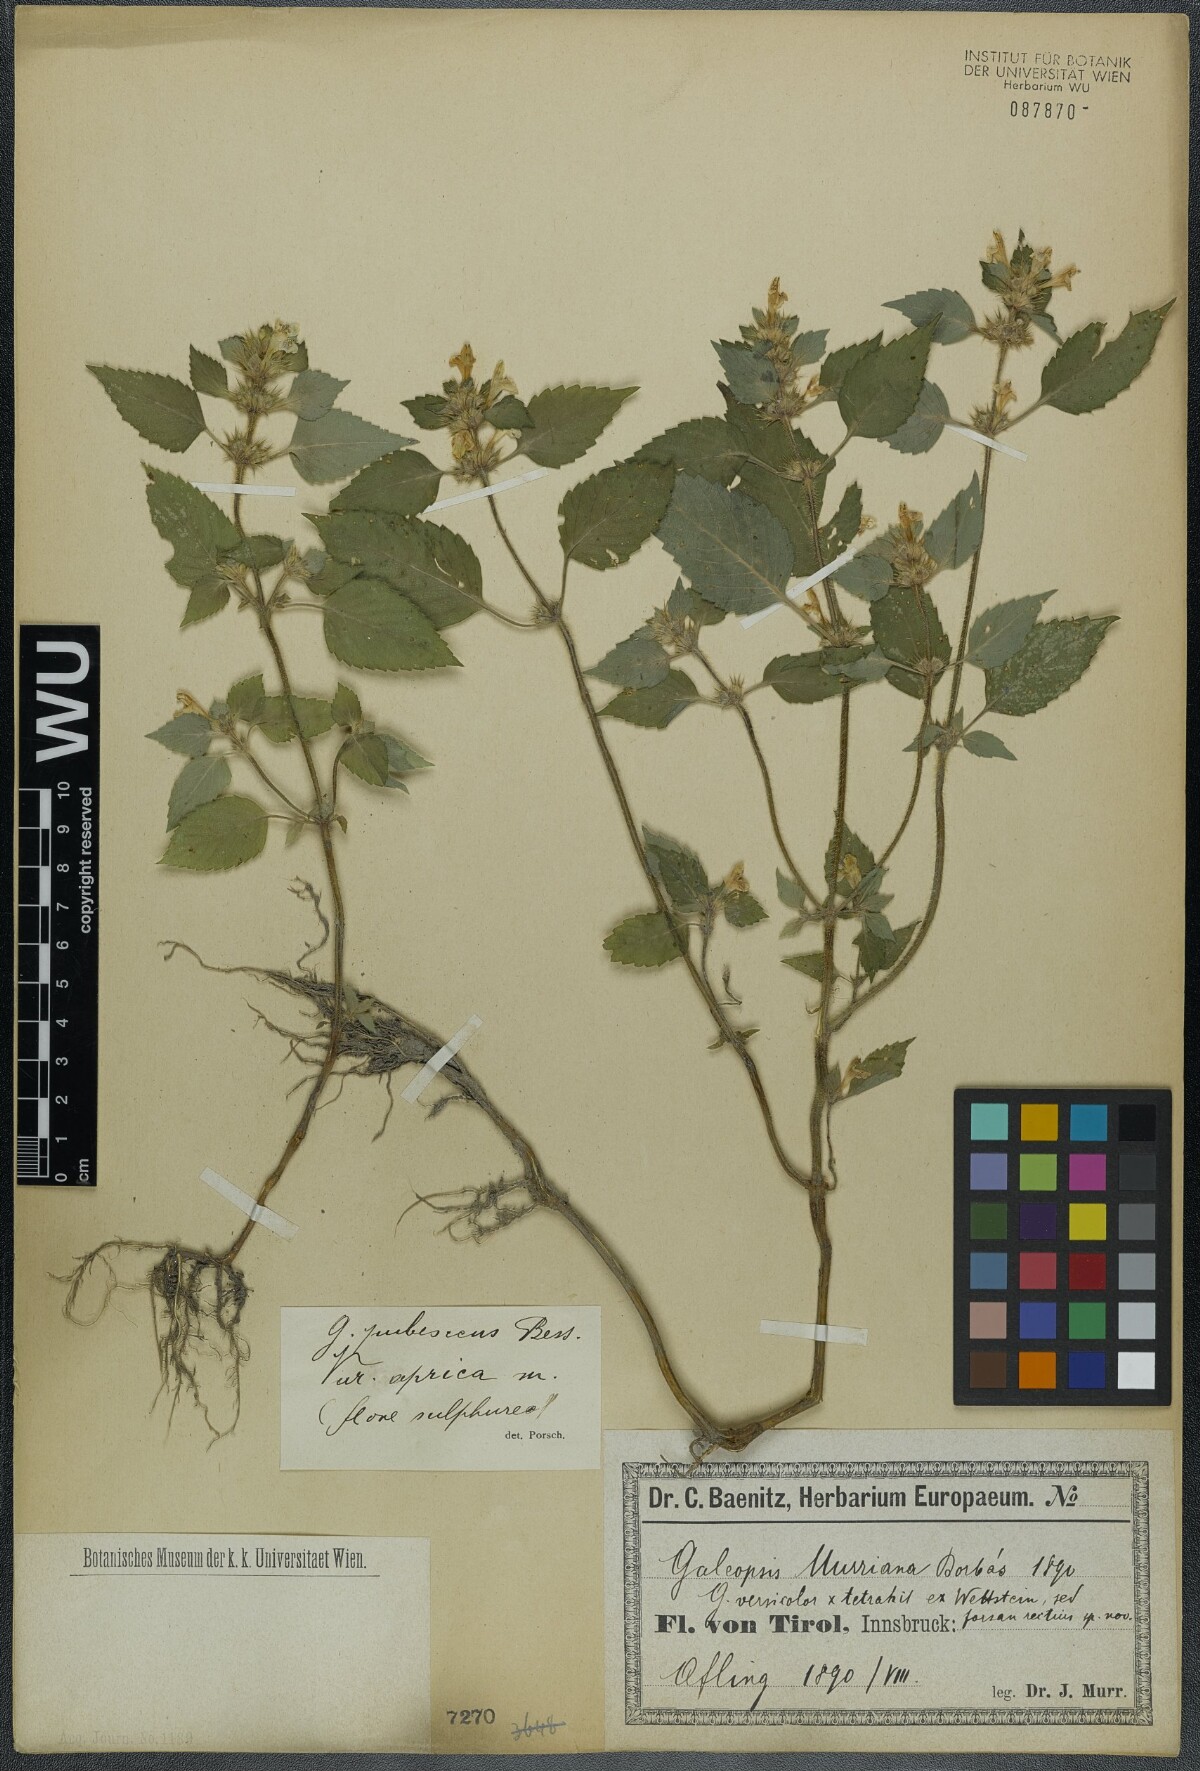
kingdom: Plantae
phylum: Tracheophyta
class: Magnoliopsida
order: Lamiales
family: Lamiaceae
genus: Galeopsis
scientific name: Galeopsis pubescens
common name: Downy hemp-nettle
